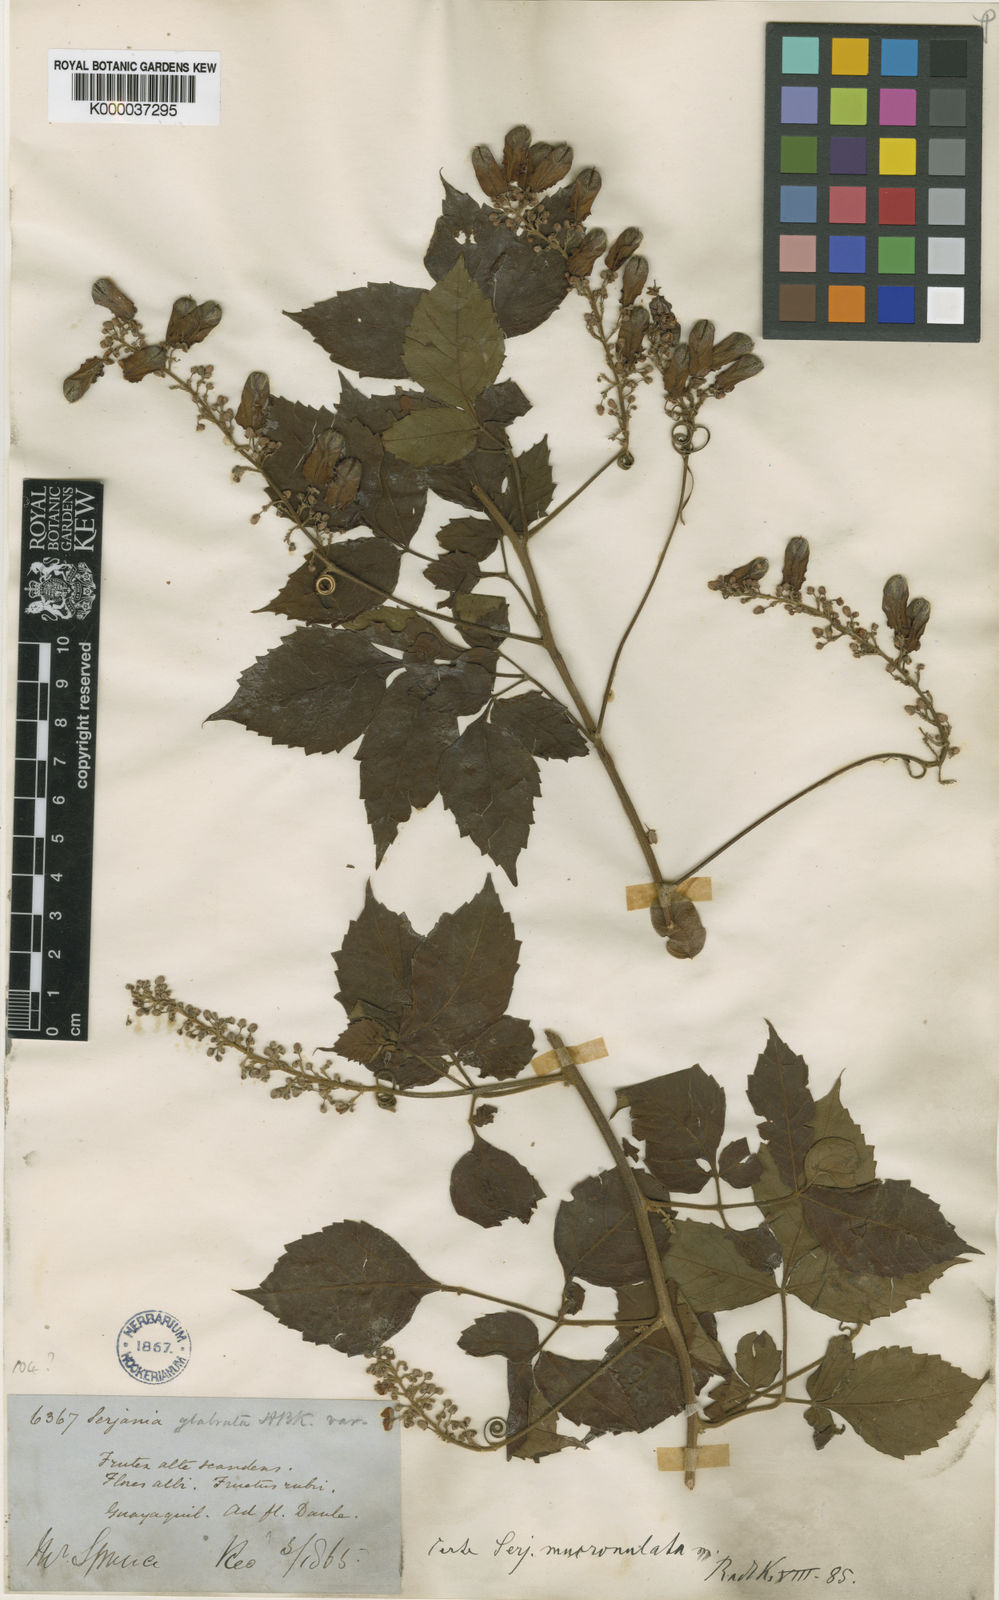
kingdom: Plantae
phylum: Tracheophyta
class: Magnoliopsida
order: Sapindales
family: Sapindaceae
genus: Serjania
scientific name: Serjania mucronulata
